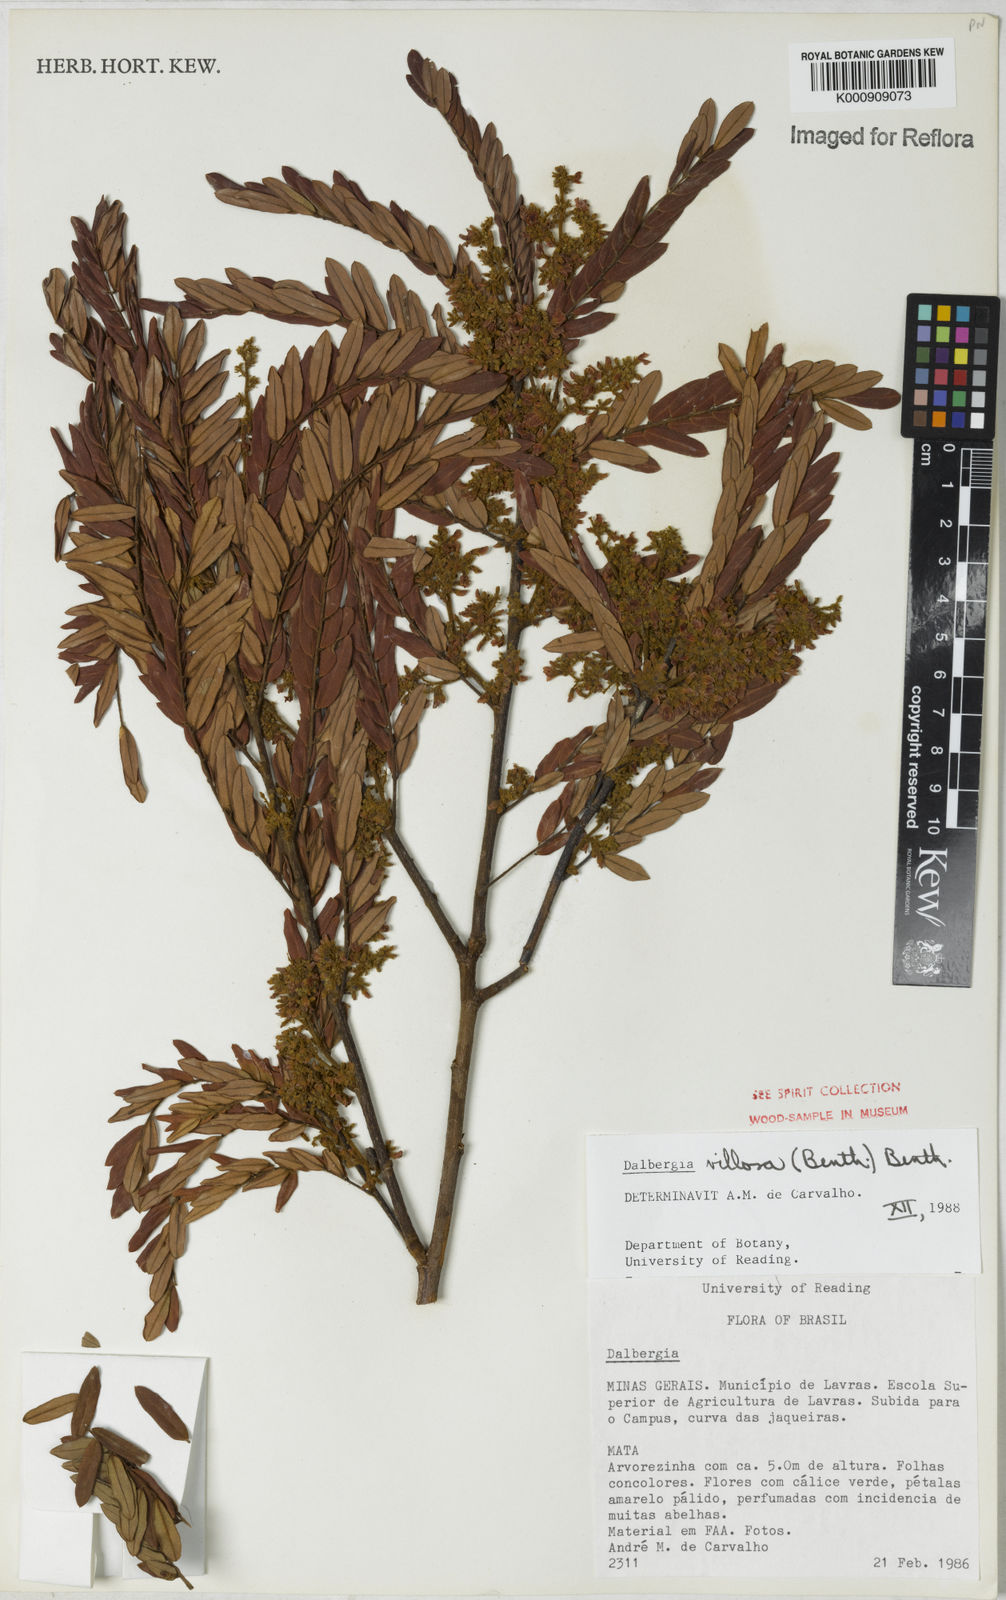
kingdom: Plantae
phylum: Tracheophyta
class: Magnoliopsida
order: Fabales
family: Fabaceae
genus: Dalbergia
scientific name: Dalbergia villosa
